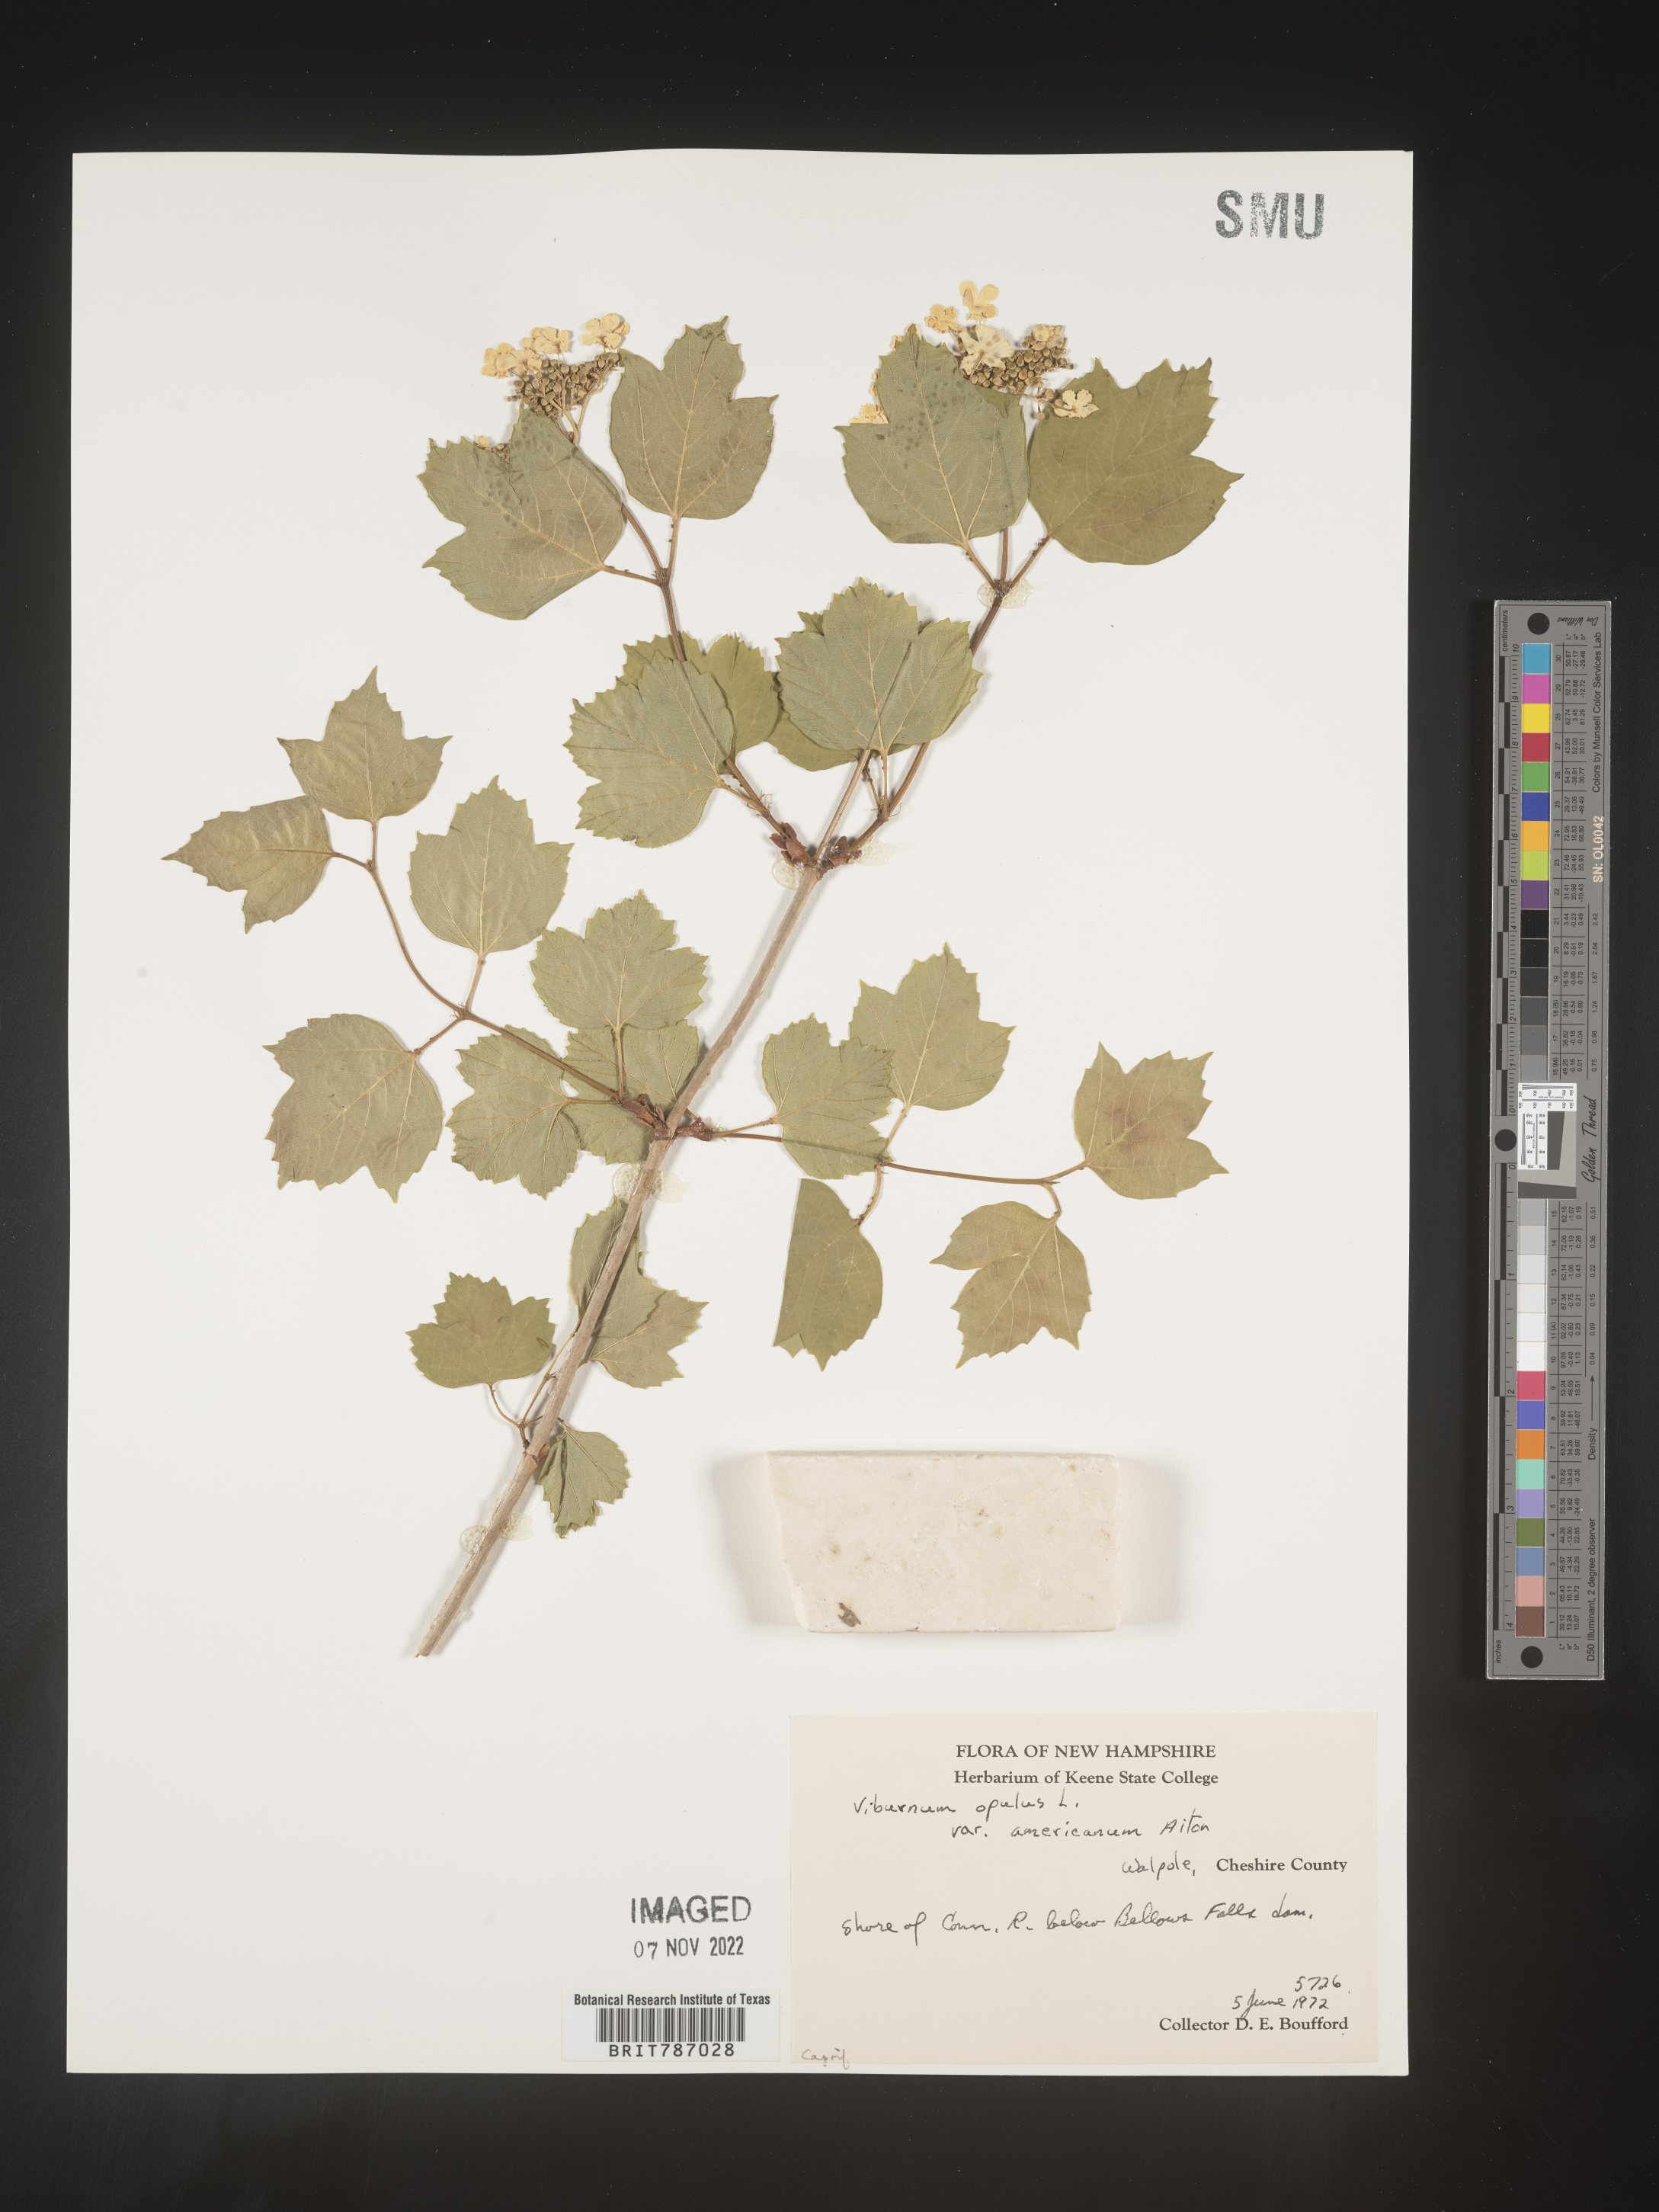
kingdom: Plantae
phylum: Tracheophyta
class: Magnoliopsida
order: Dipsacales
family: Viburnaceae
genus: Viburnum
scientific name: Viburnum opulus
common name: Guelder-rose
